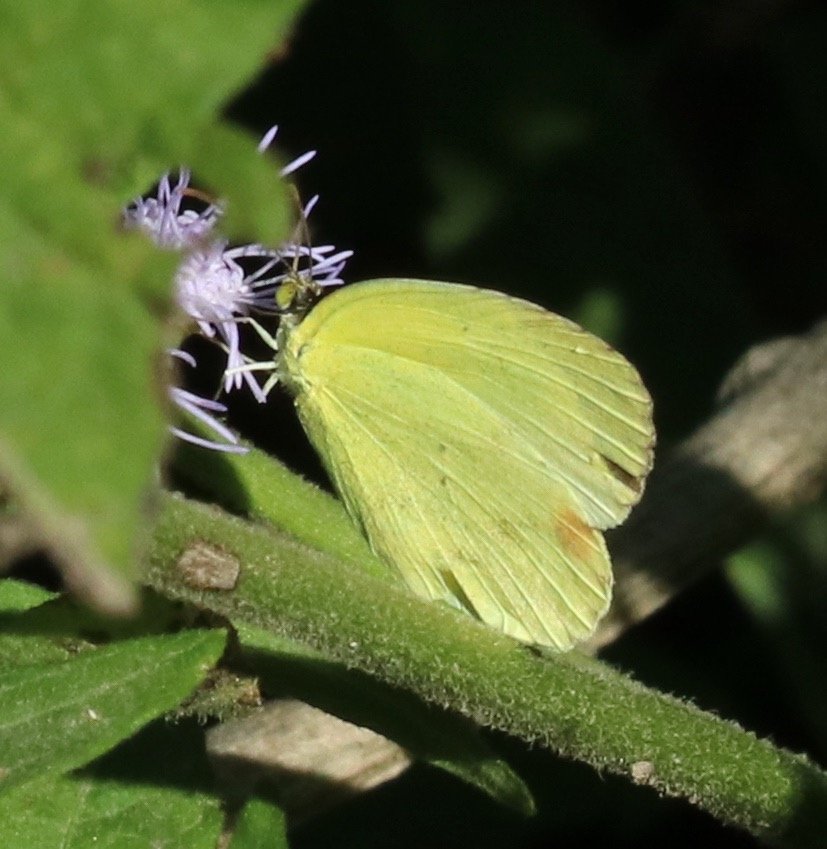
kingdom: Animalia
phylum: Arthropoda
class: Insecta
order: Lepidoptera
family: Pieridae
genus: Pyrisitia
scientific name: Pyrisitia nise
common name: Mimosa Yellow
